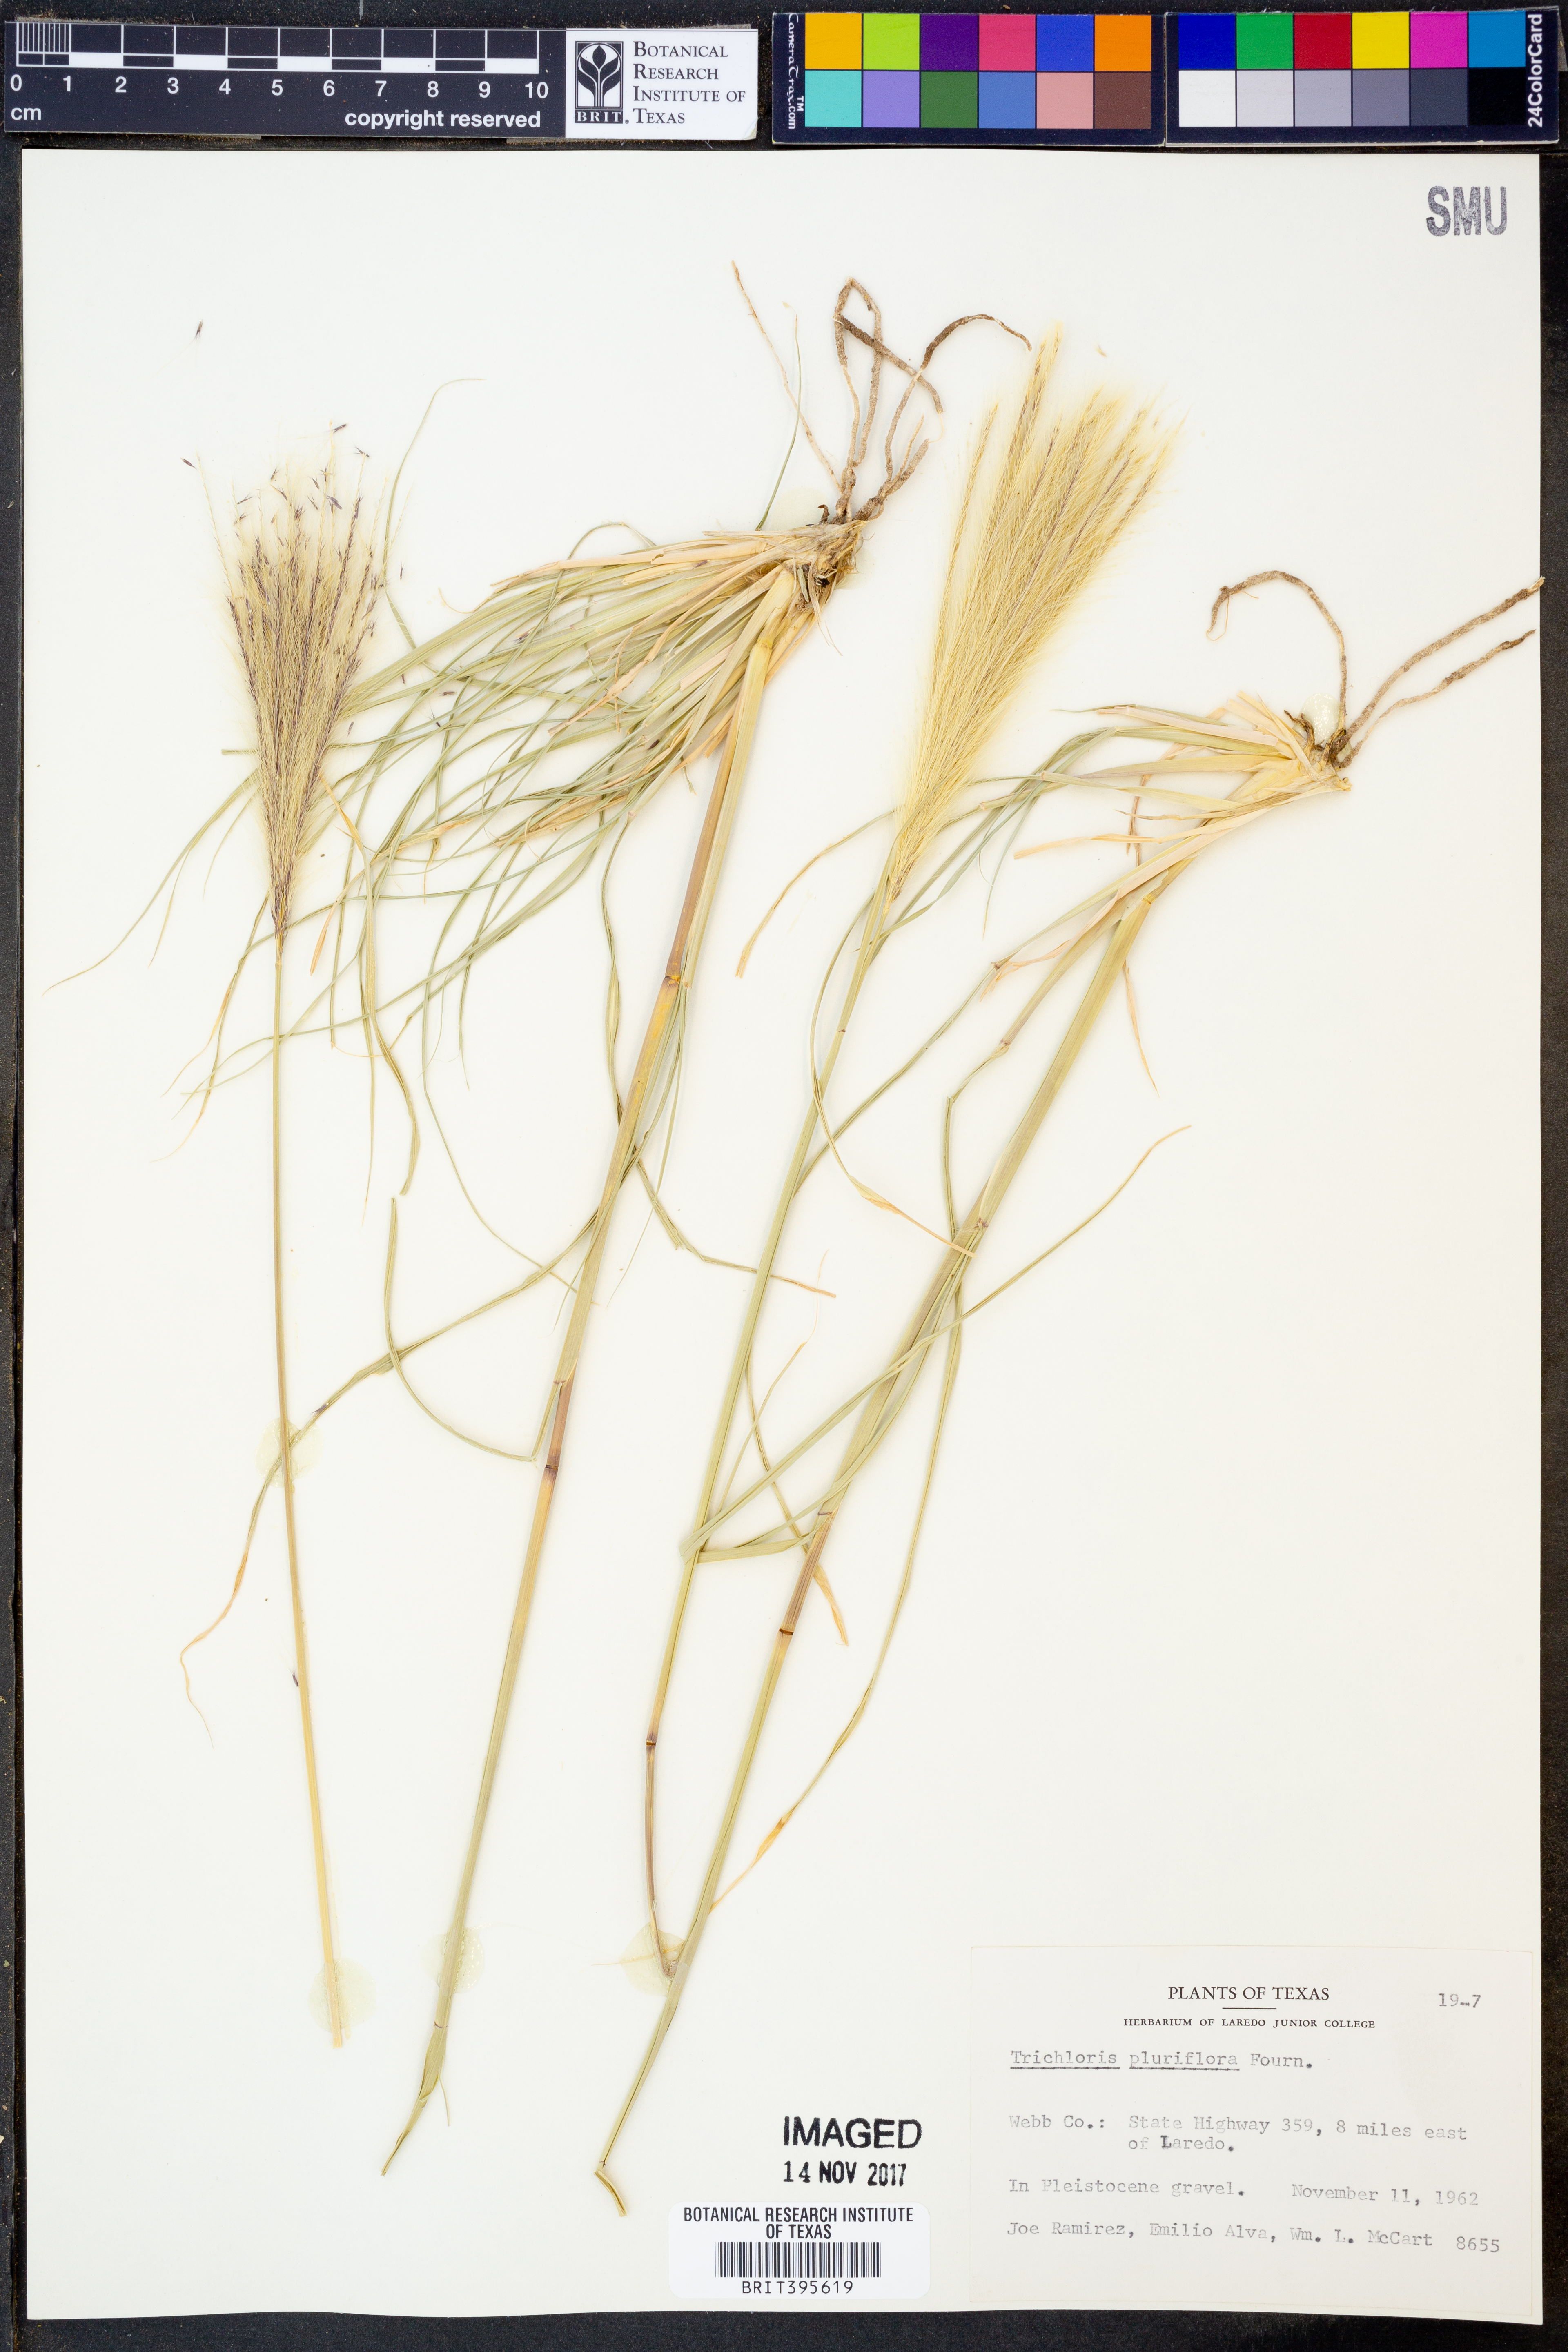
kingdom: Plantae
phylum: Tracheophyta
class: Liliopsida
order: Poales
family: Poaceae
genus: Leptochloa
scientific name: Leptochloa pluriflora
